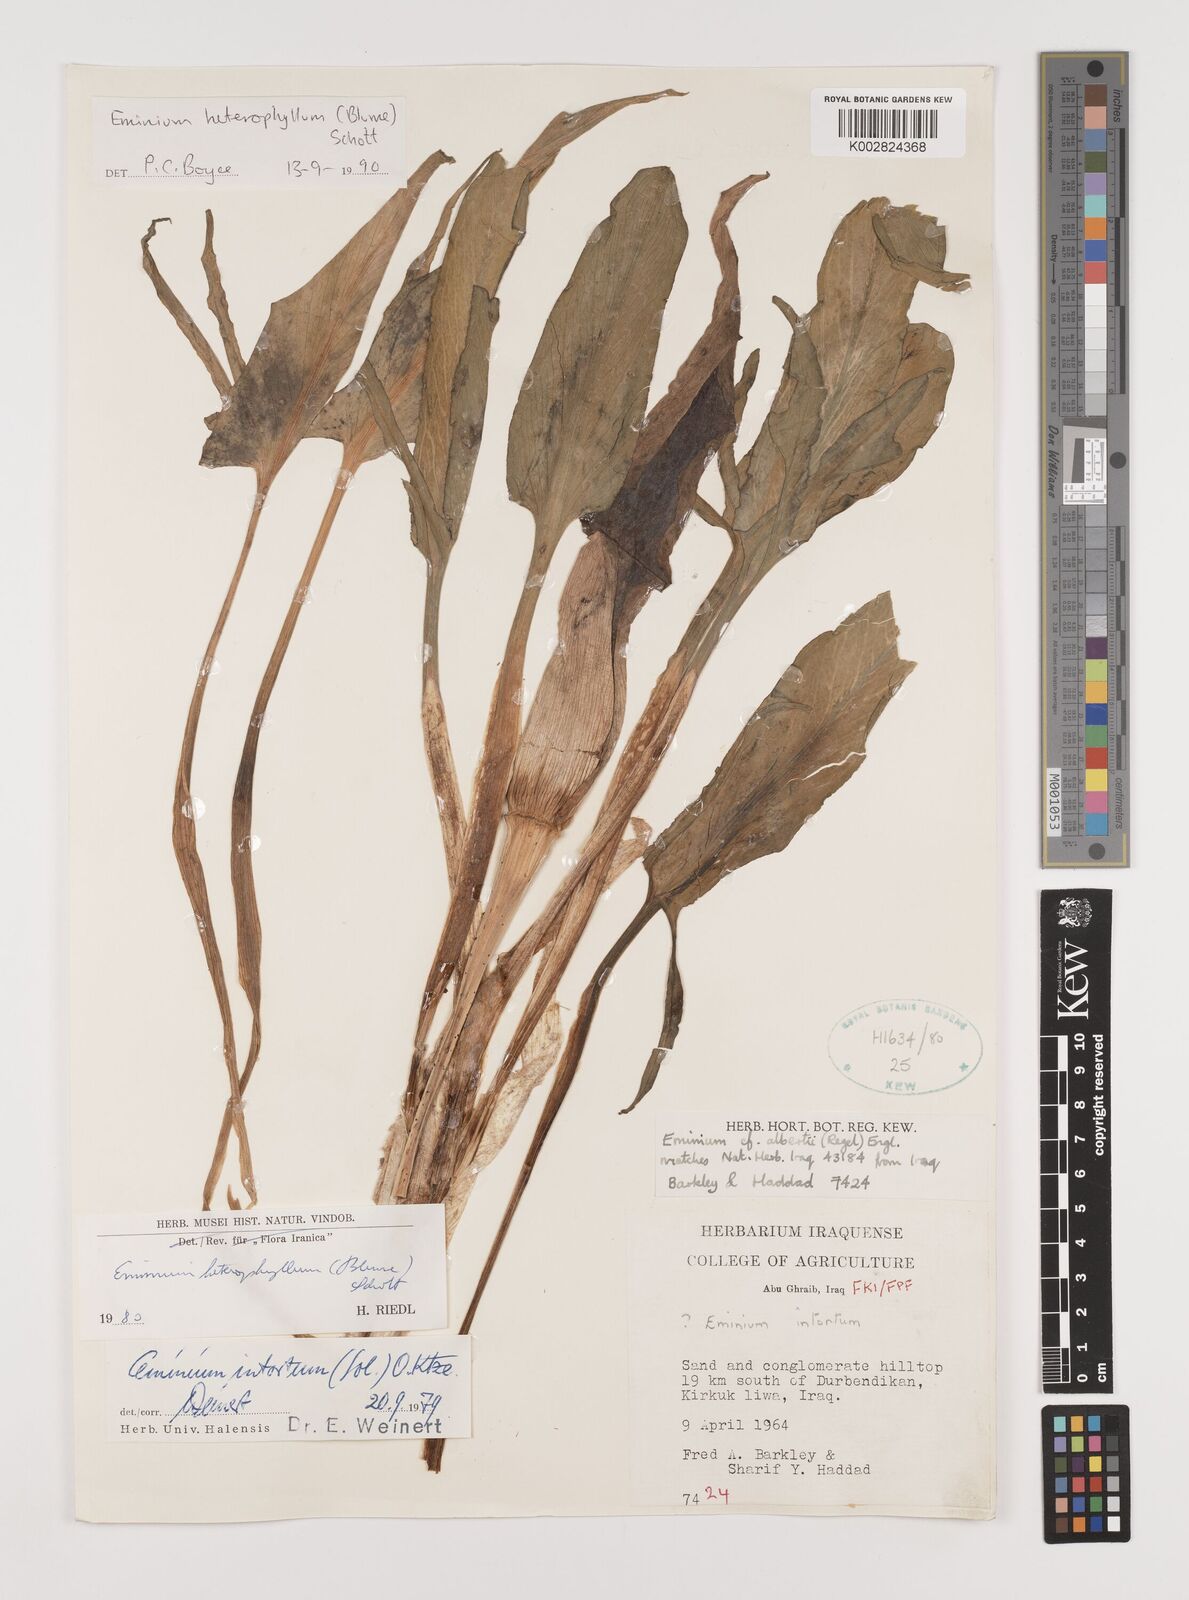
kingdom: Plantae
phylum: Tracheophyta
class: Liliopsida
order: Alismatales
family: Araceae
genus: Eminium
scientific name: Eminium rauwolffii
